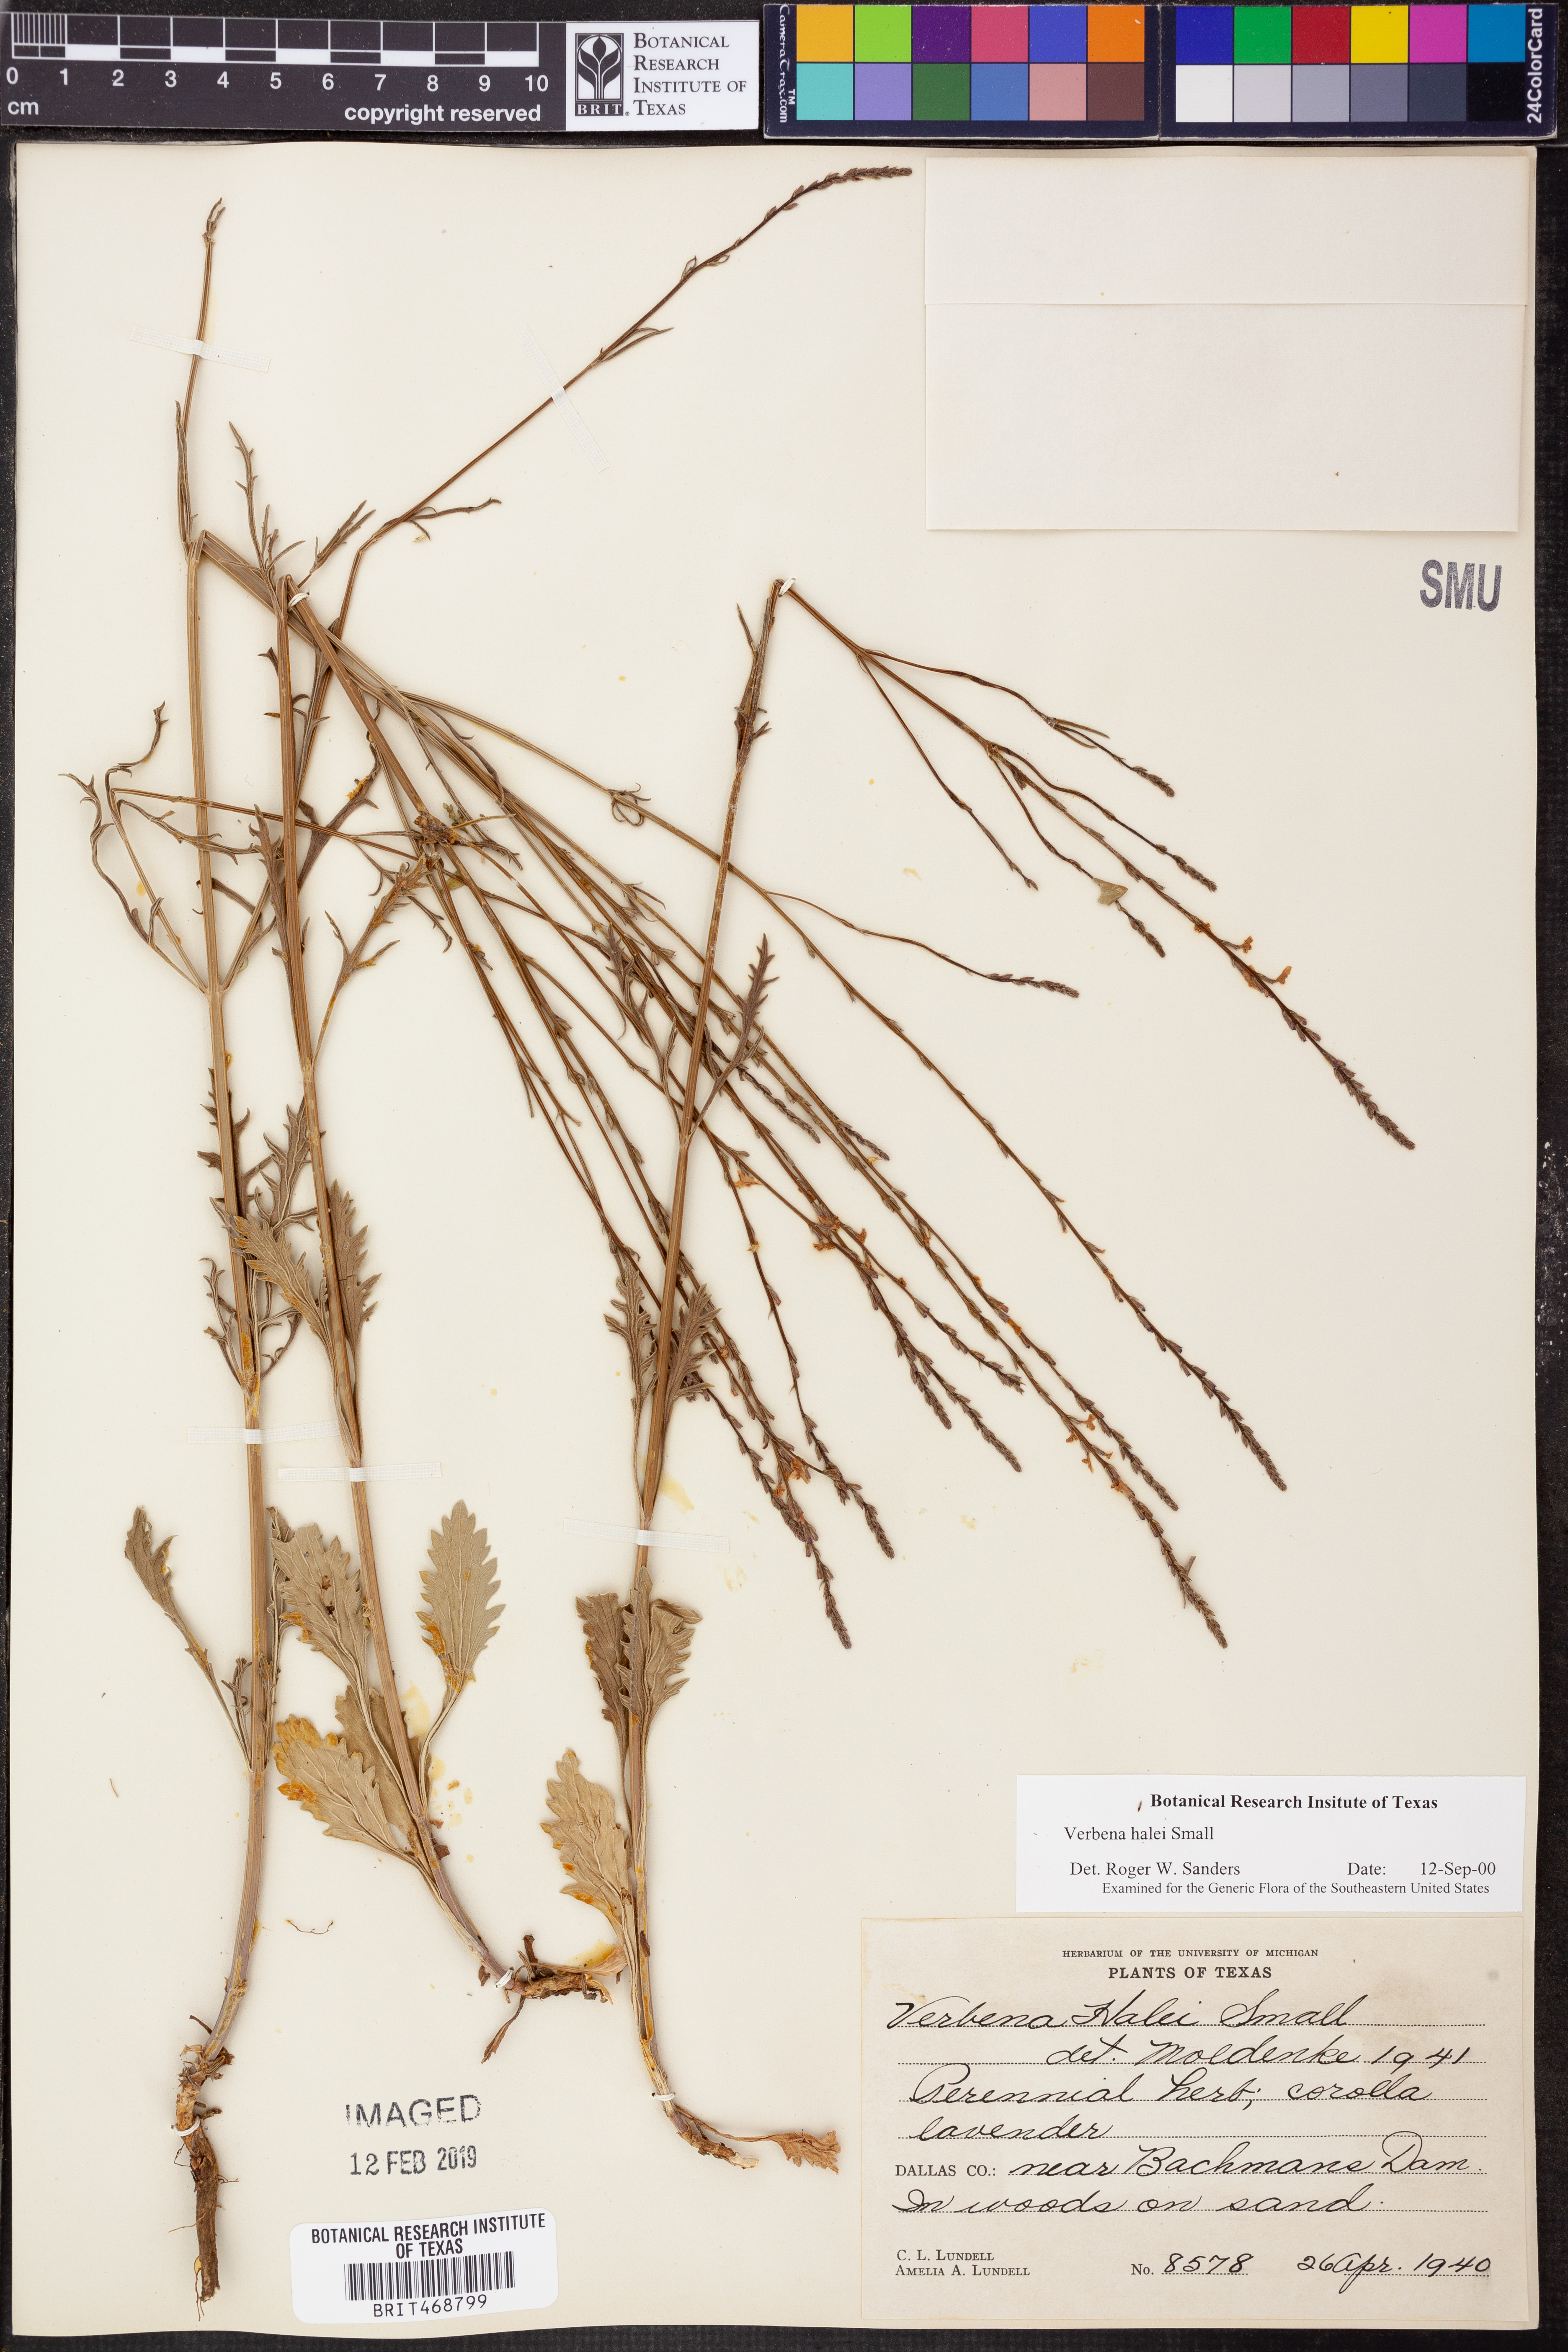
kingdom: Plantae
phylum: Tracheophyta
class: Magnoliopsida
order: Lamiales
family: Verbenaceae
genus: Verbena
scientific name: Verbena halei
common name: Texas vervain
